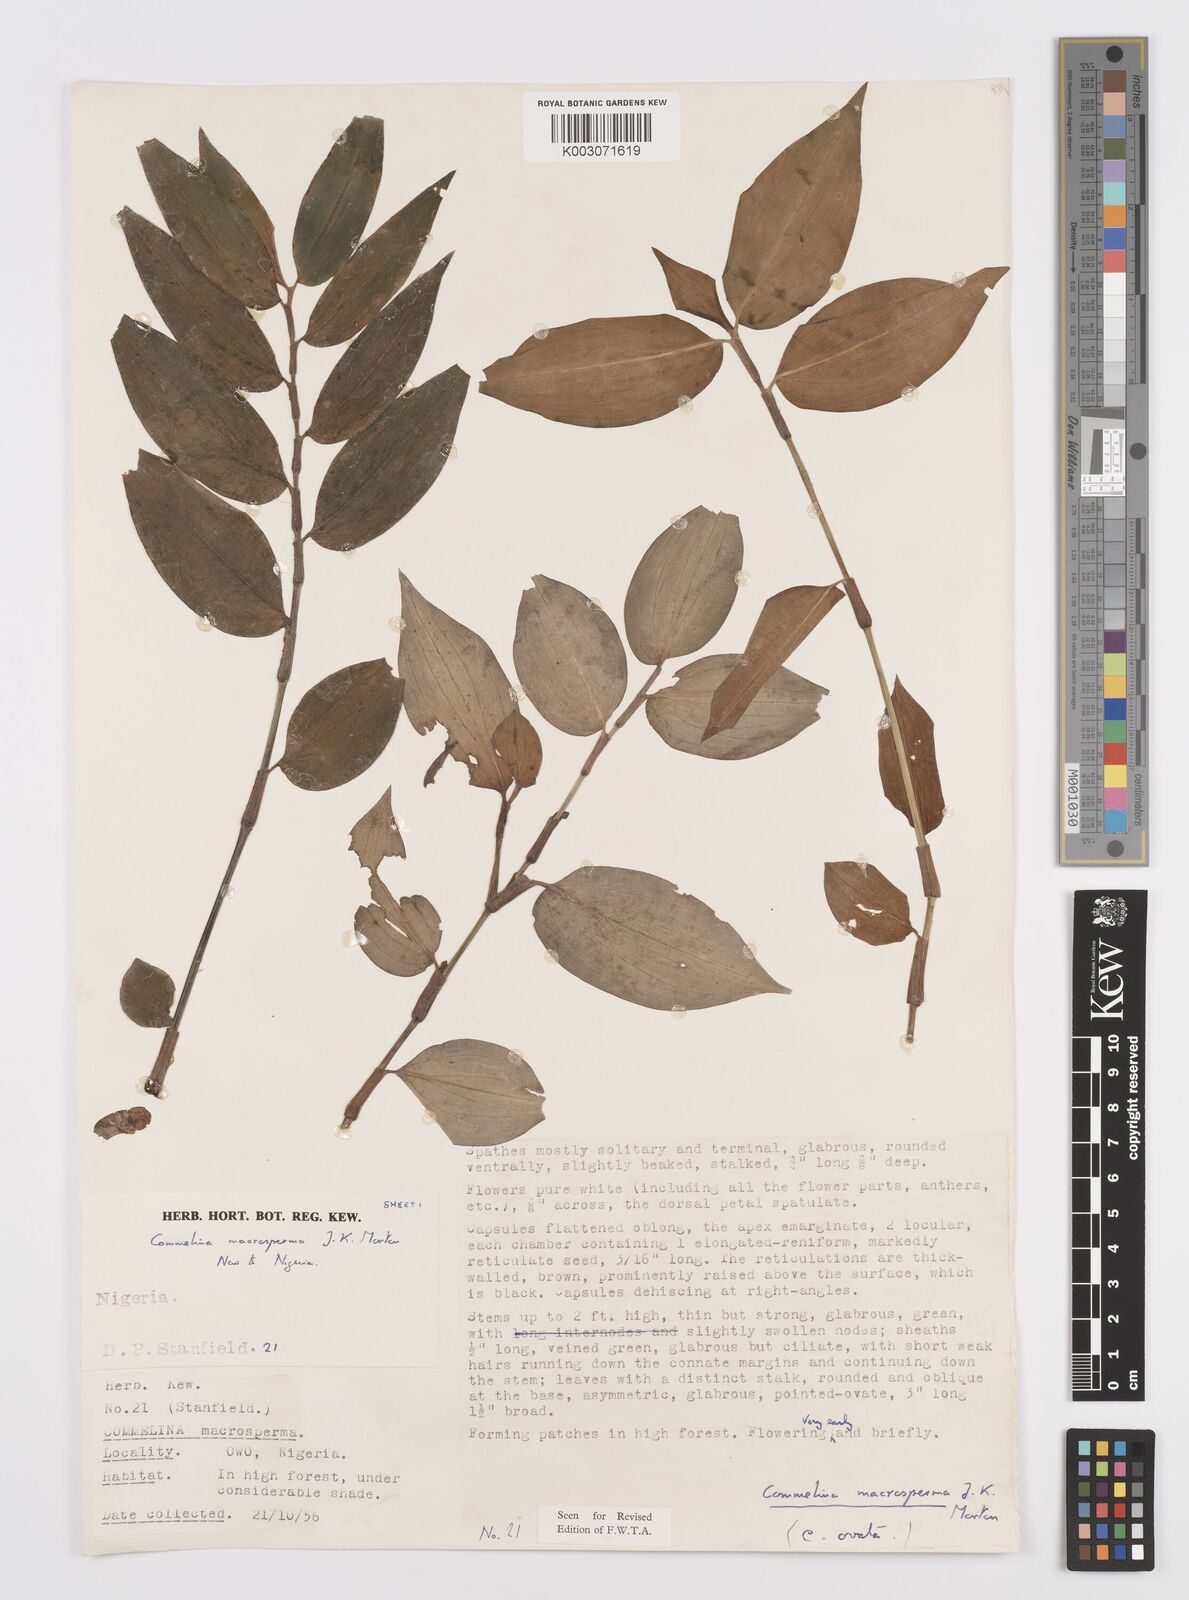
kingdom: Plantae
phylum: Tracheophyta
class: Liliopsida
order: Commelinales
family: Commelinaceae
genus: Commelina
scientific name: Commelina macrosperma
